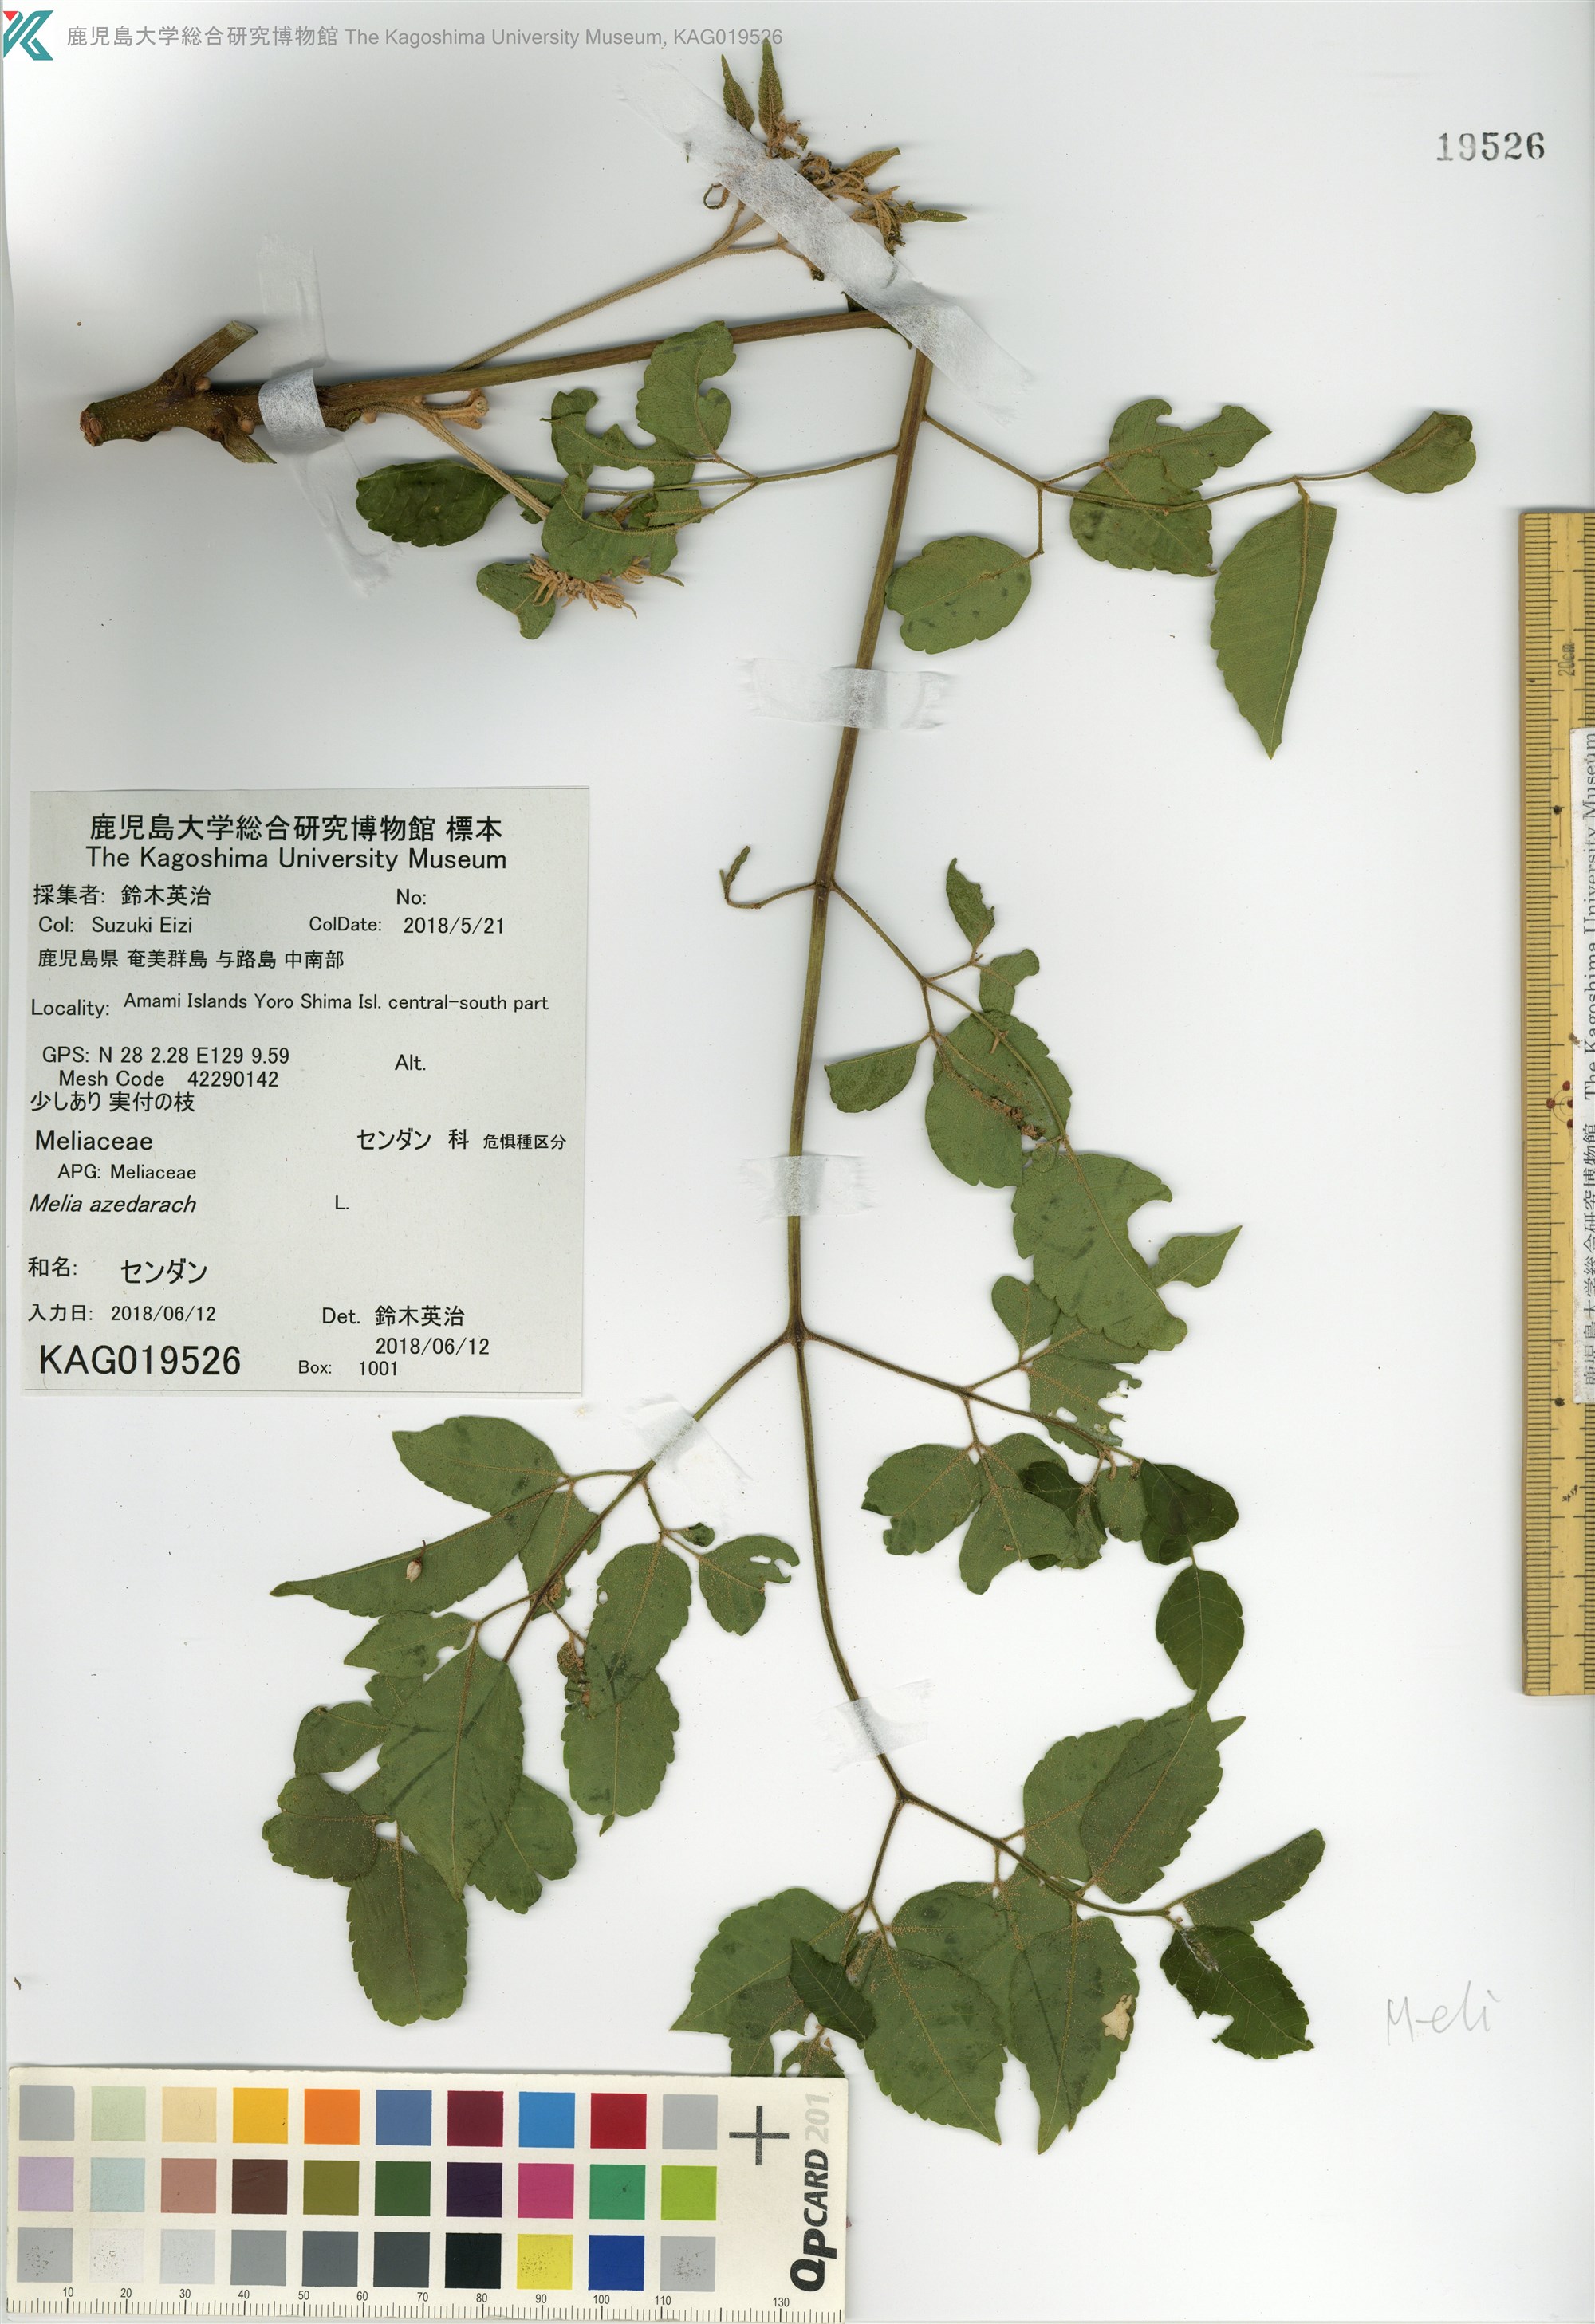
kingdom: Plantae
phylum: Tracheophyta
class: Magnoliopsida
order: Sapindales
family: Meliaceae
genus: Melia
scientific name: Melia azedarach
